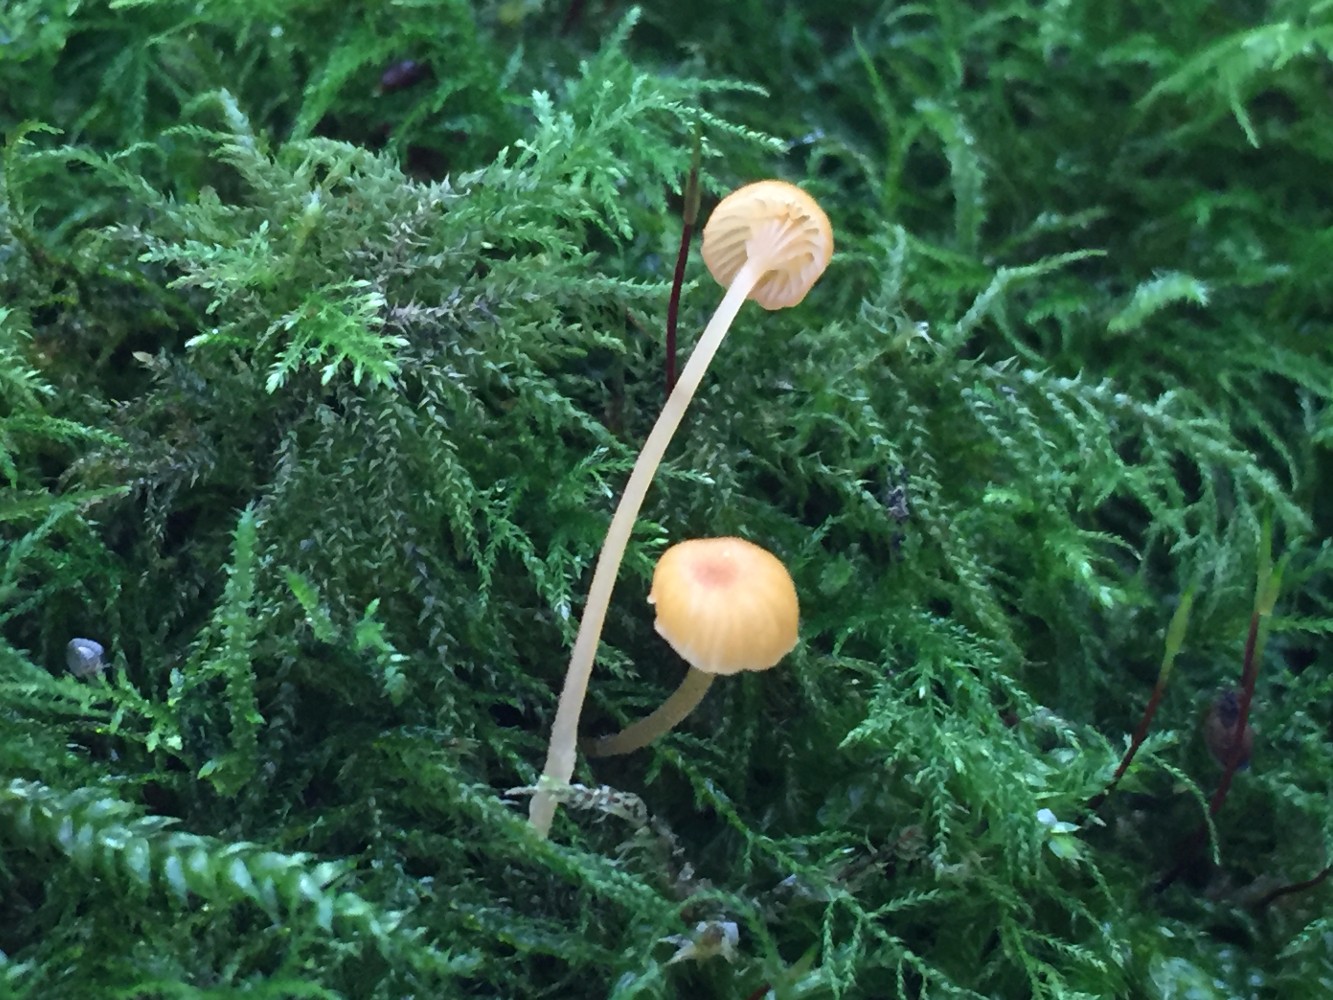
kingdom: Fungi
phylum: Basidiomycota
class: Agaricomycetes
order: Hymenochaetales
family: Rickenellaceae
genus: Rickenella
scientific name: Rickenella fibula
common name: orange mosnavlehat
